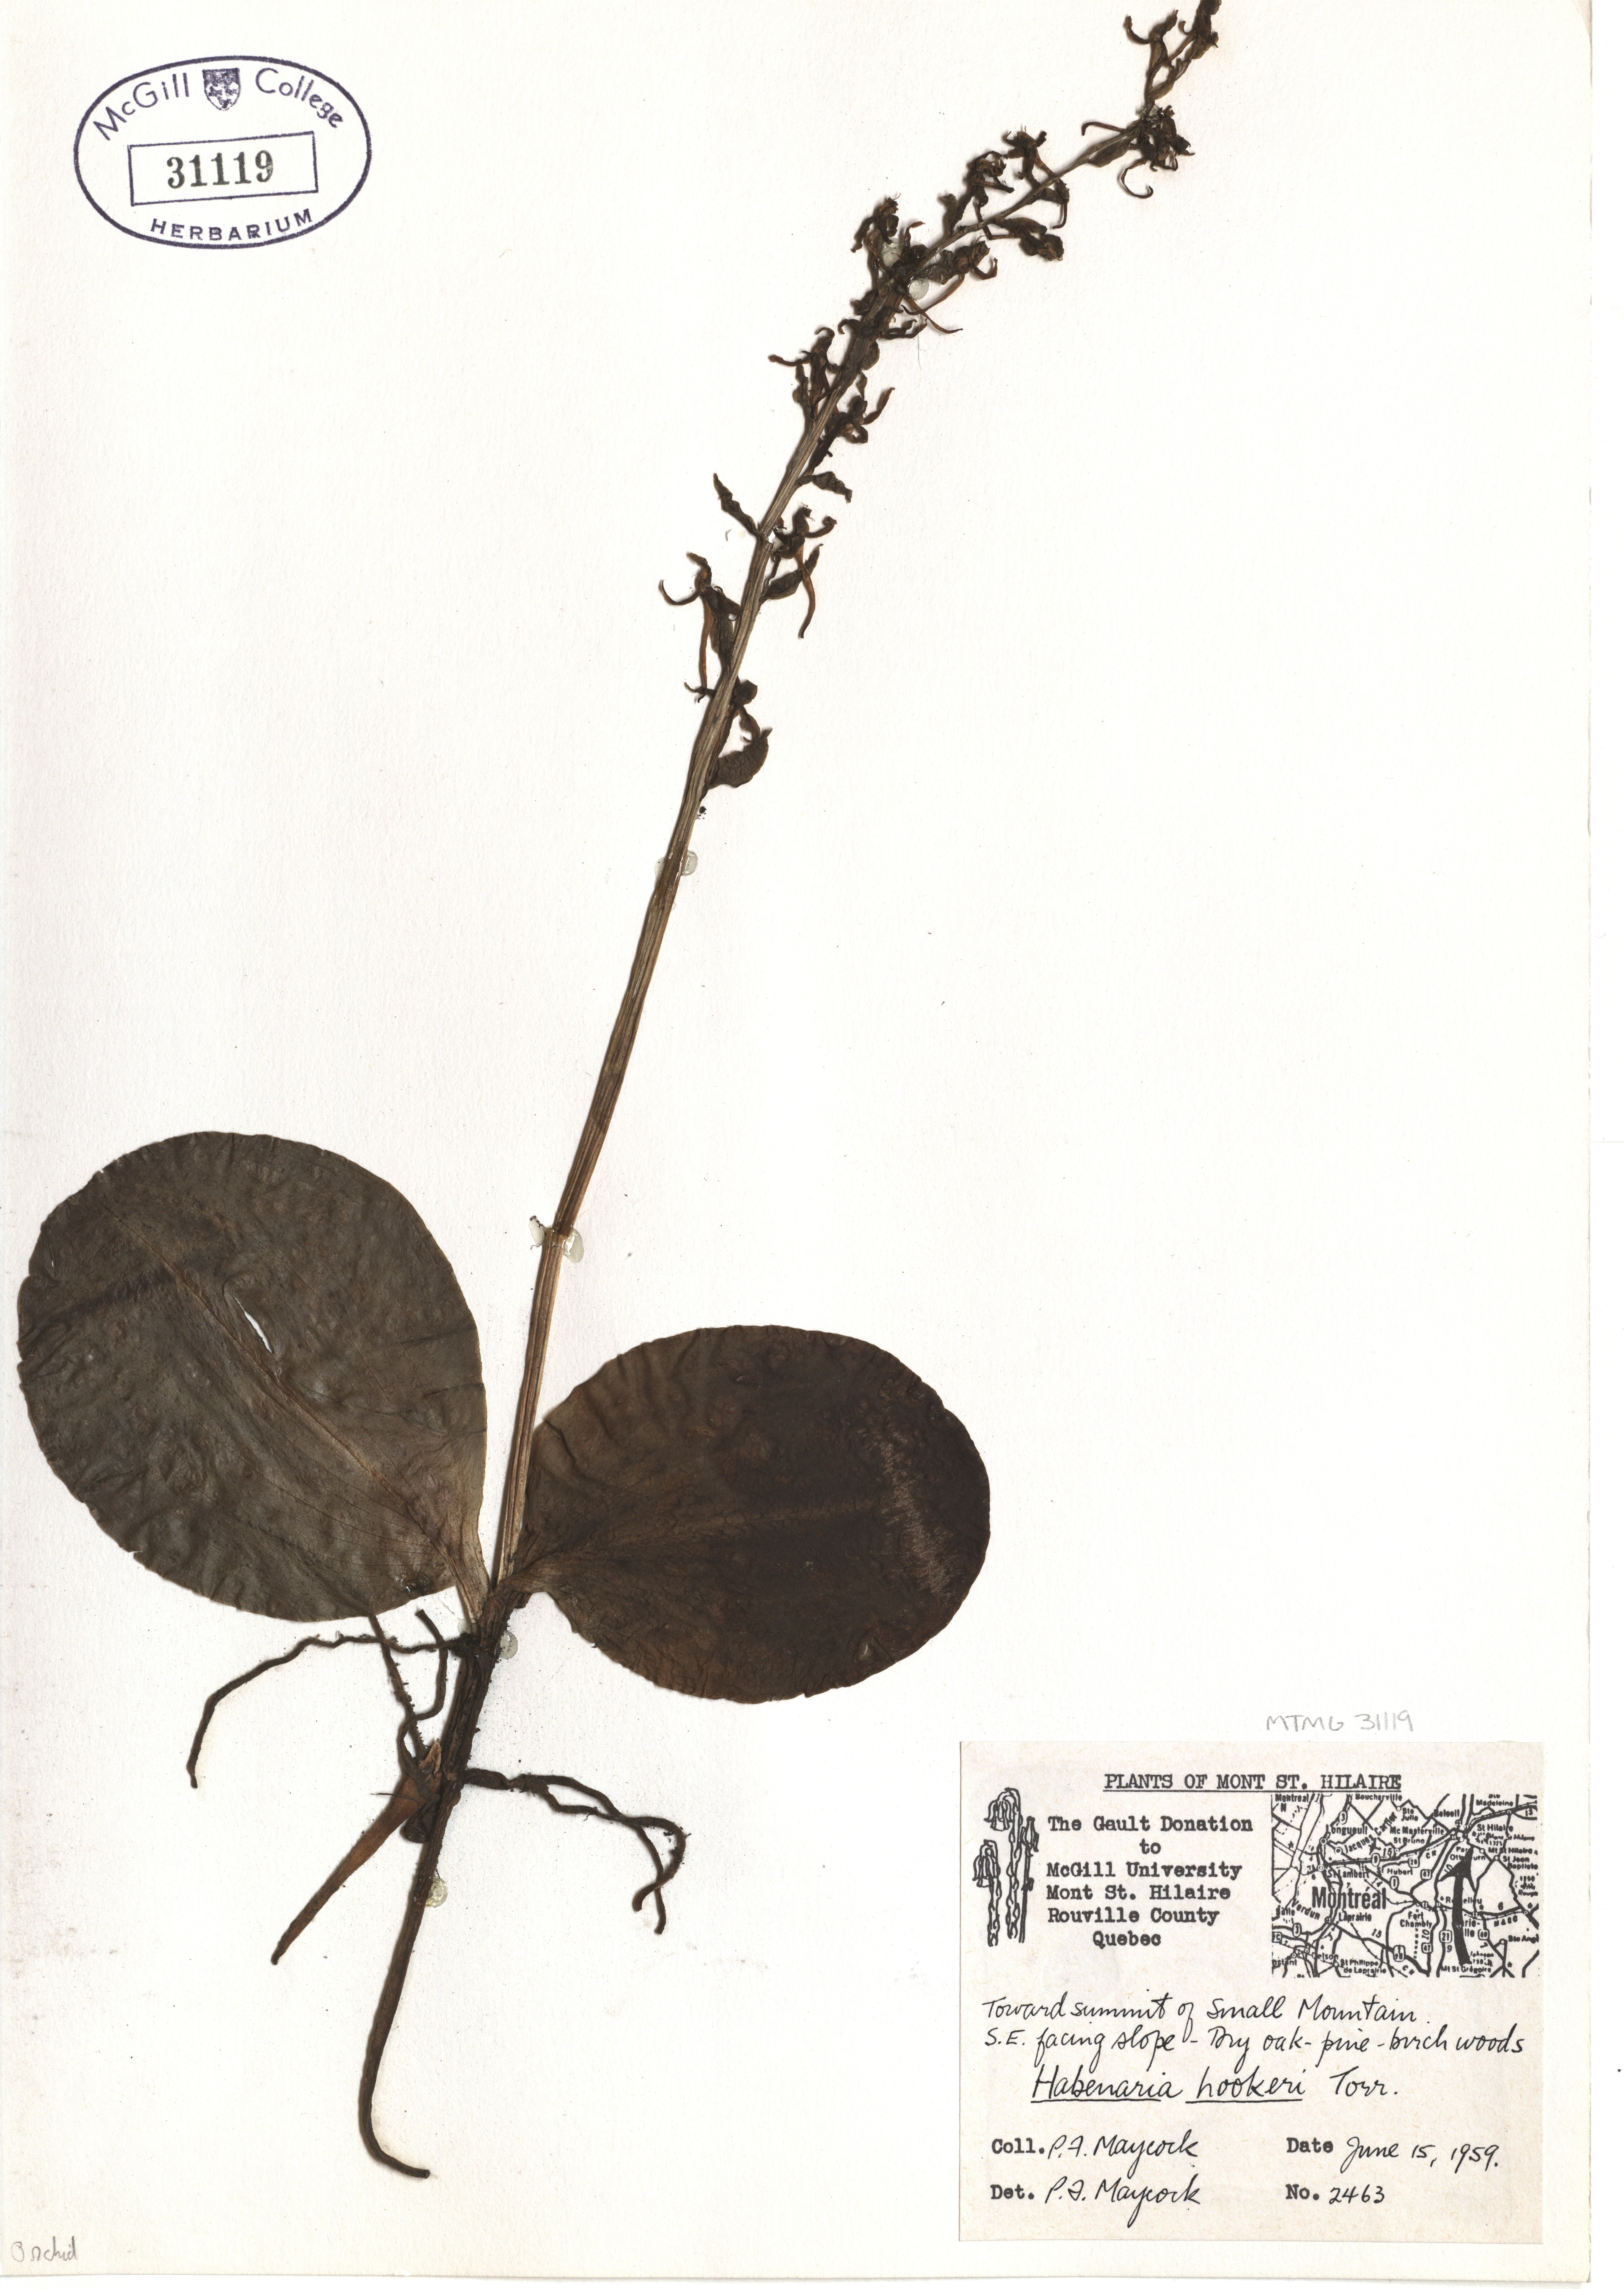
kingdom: Plantae
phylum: Tracheophyta
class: Liliopsida
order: Asparagales
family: Orchidaceae
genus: Platanthera
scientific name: Platanthera hookeri
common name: Hooker's orchid
